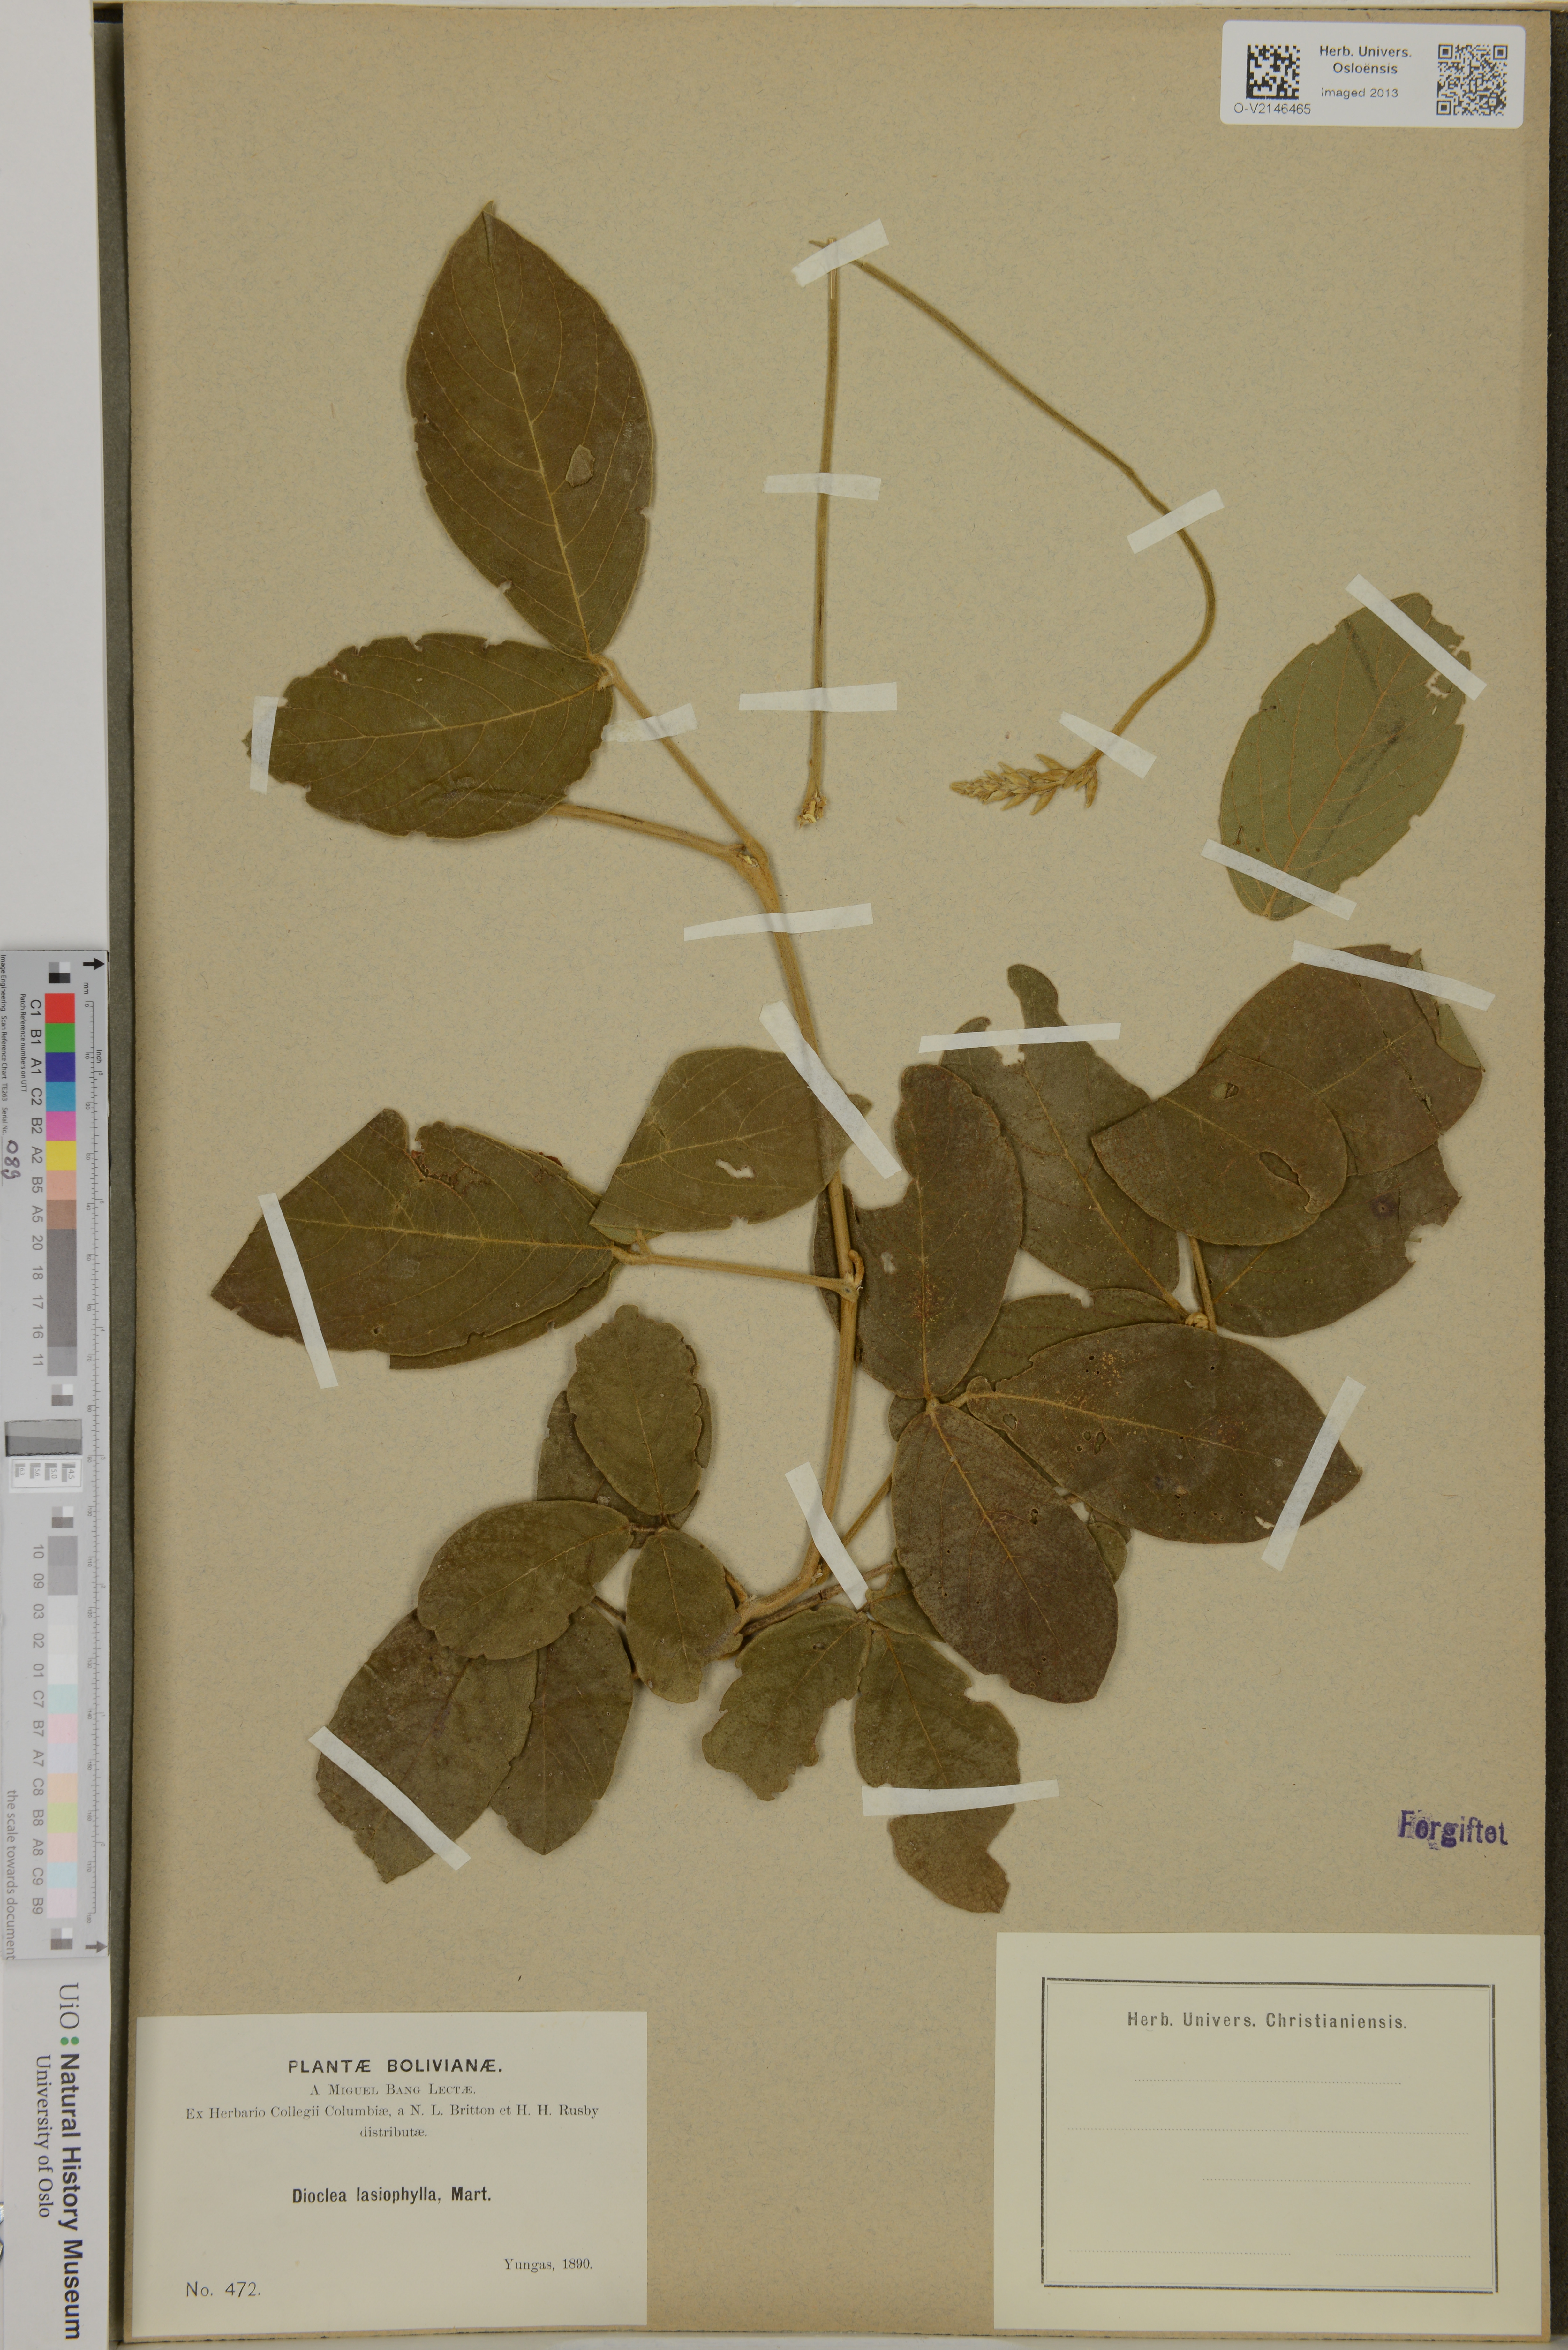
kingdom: Plantae
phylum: Tracheophyta
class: Magnoliopsida
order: Fabales
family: Fabaceae
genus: Dioclea
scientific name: Dioclea lasiophylla
